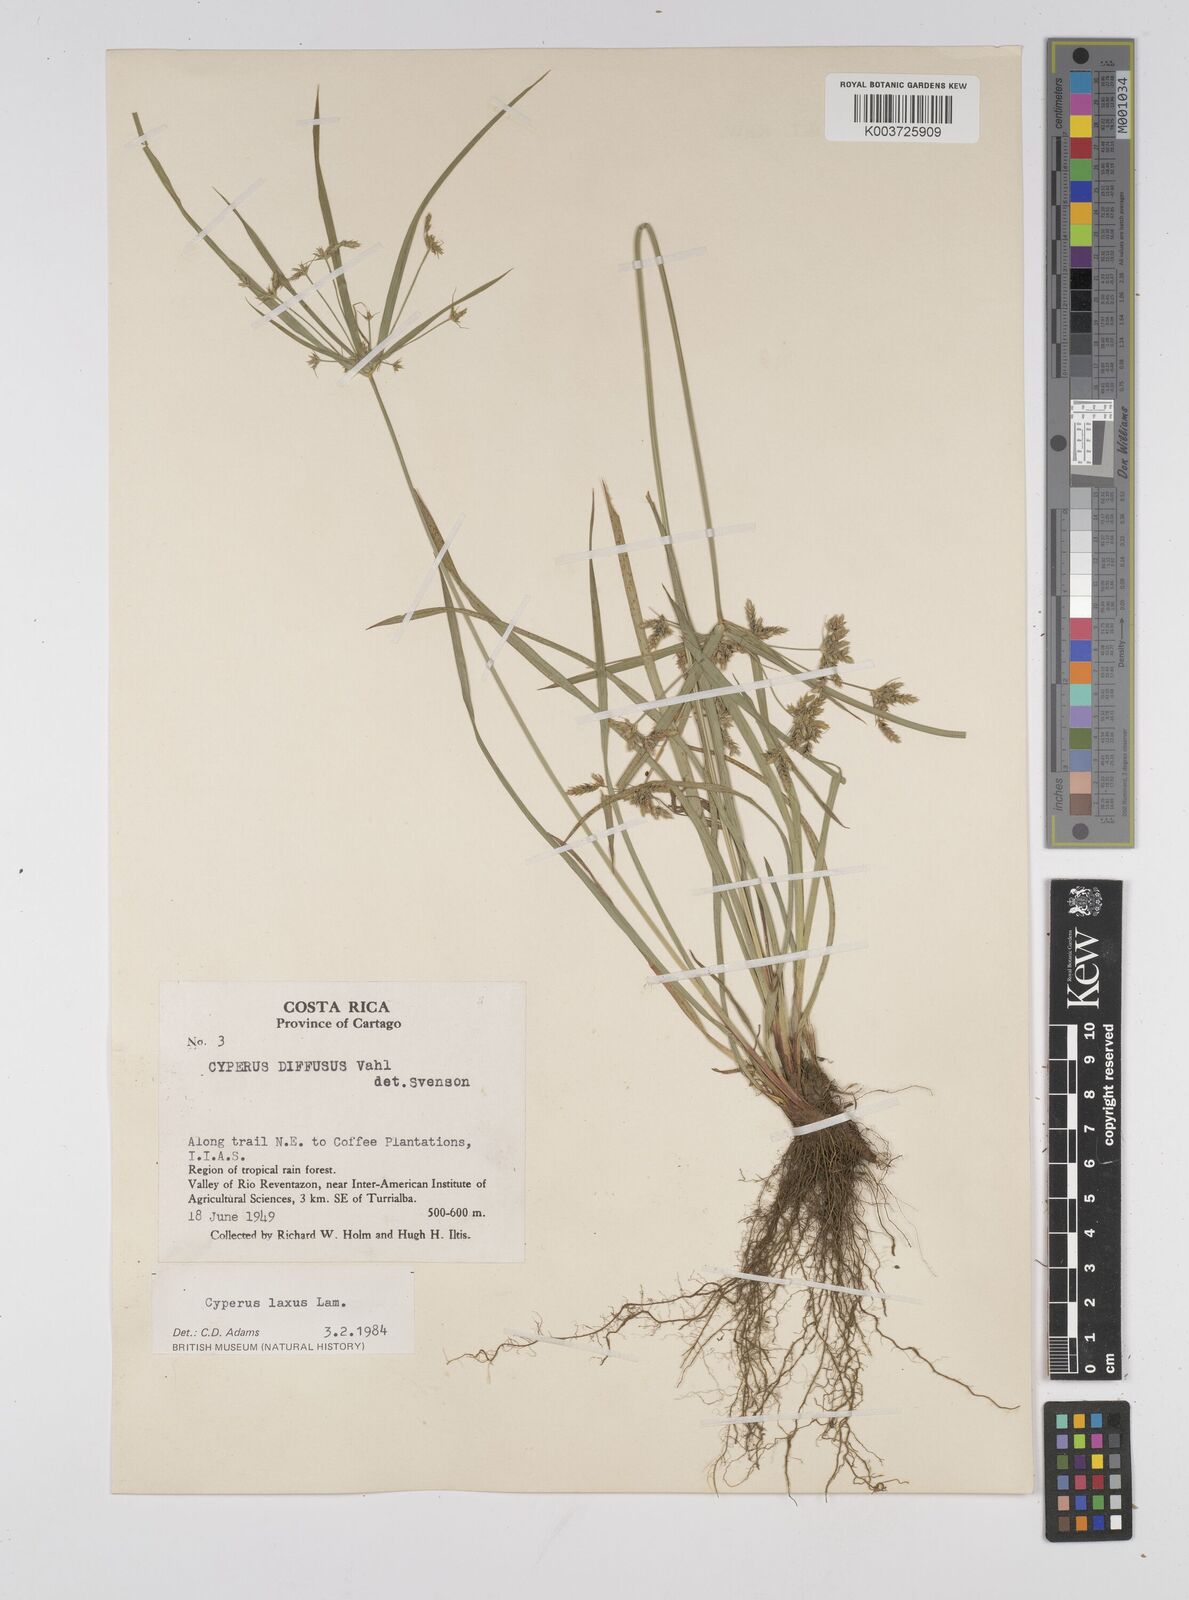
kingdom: Plantae
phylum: Tracheophyta
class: Liliopsida
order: Poales
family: Cyperaceae
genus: Cyperus
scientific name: Cyperus chalaranthus
